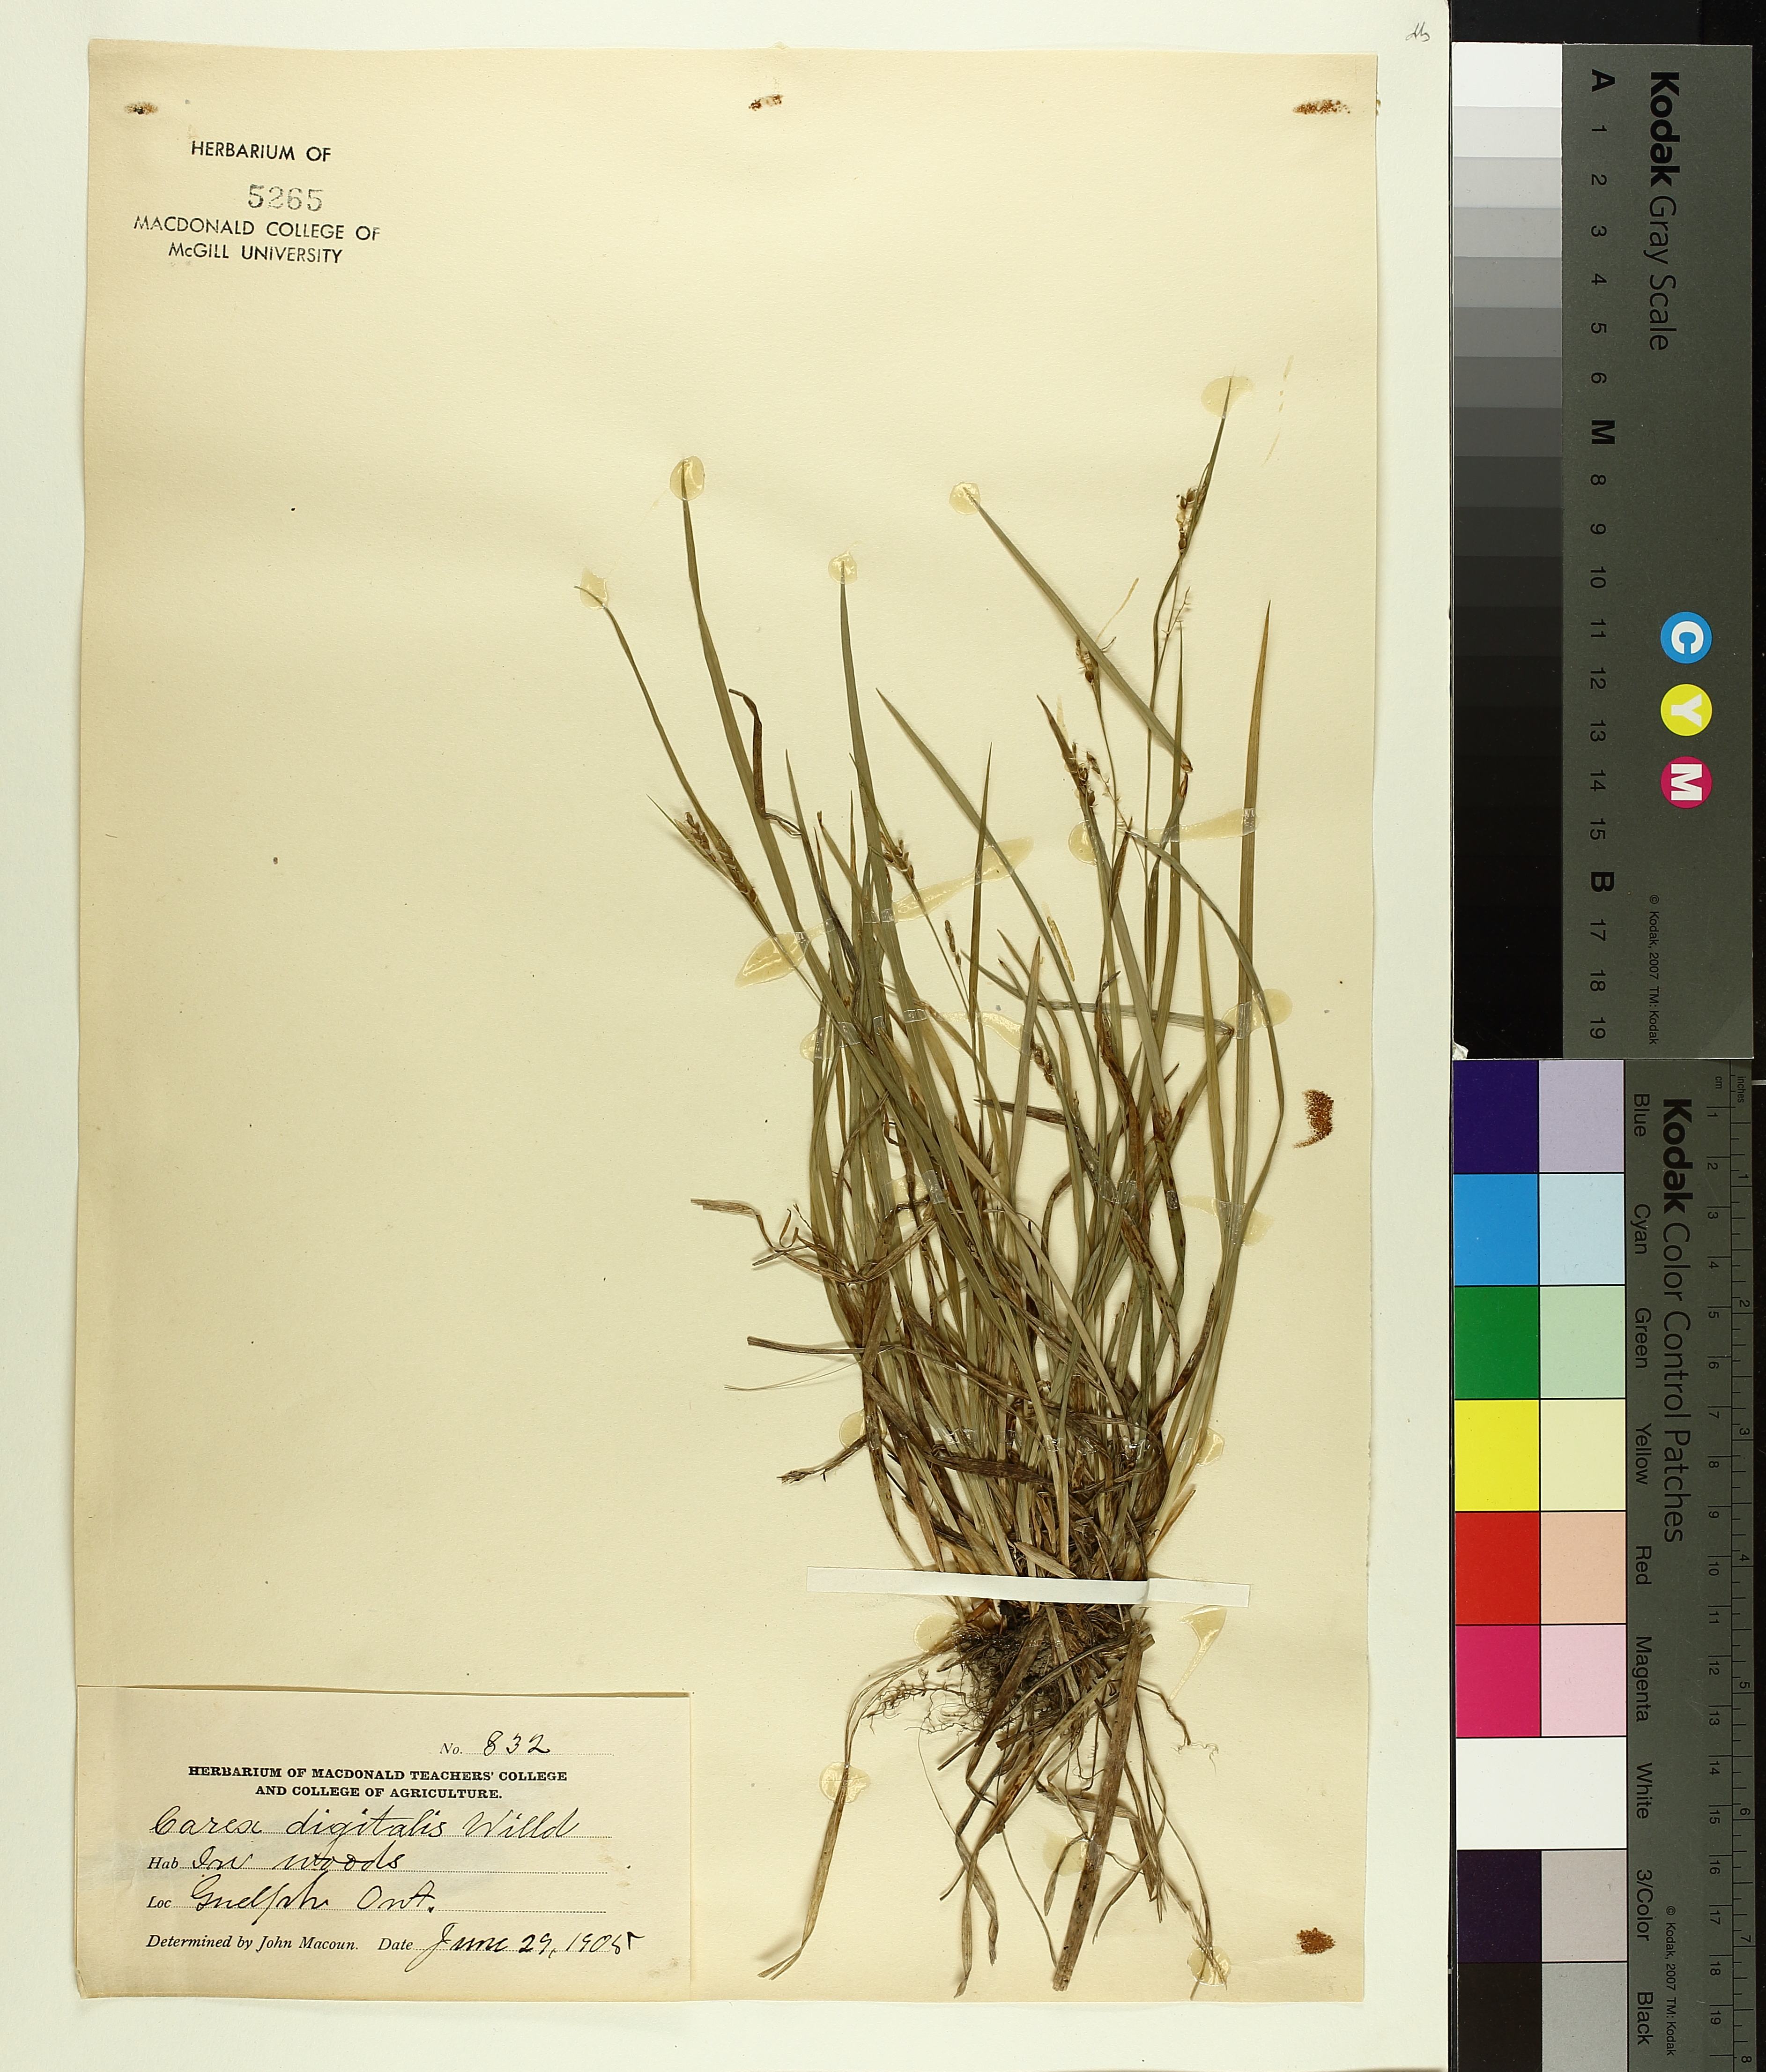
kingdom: Plantae
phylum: Tracheophyta
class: Liliopsida
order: Poales
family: Cyperaceae
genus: Carex
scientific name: Carex digitalis
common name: Slender wood sedge
